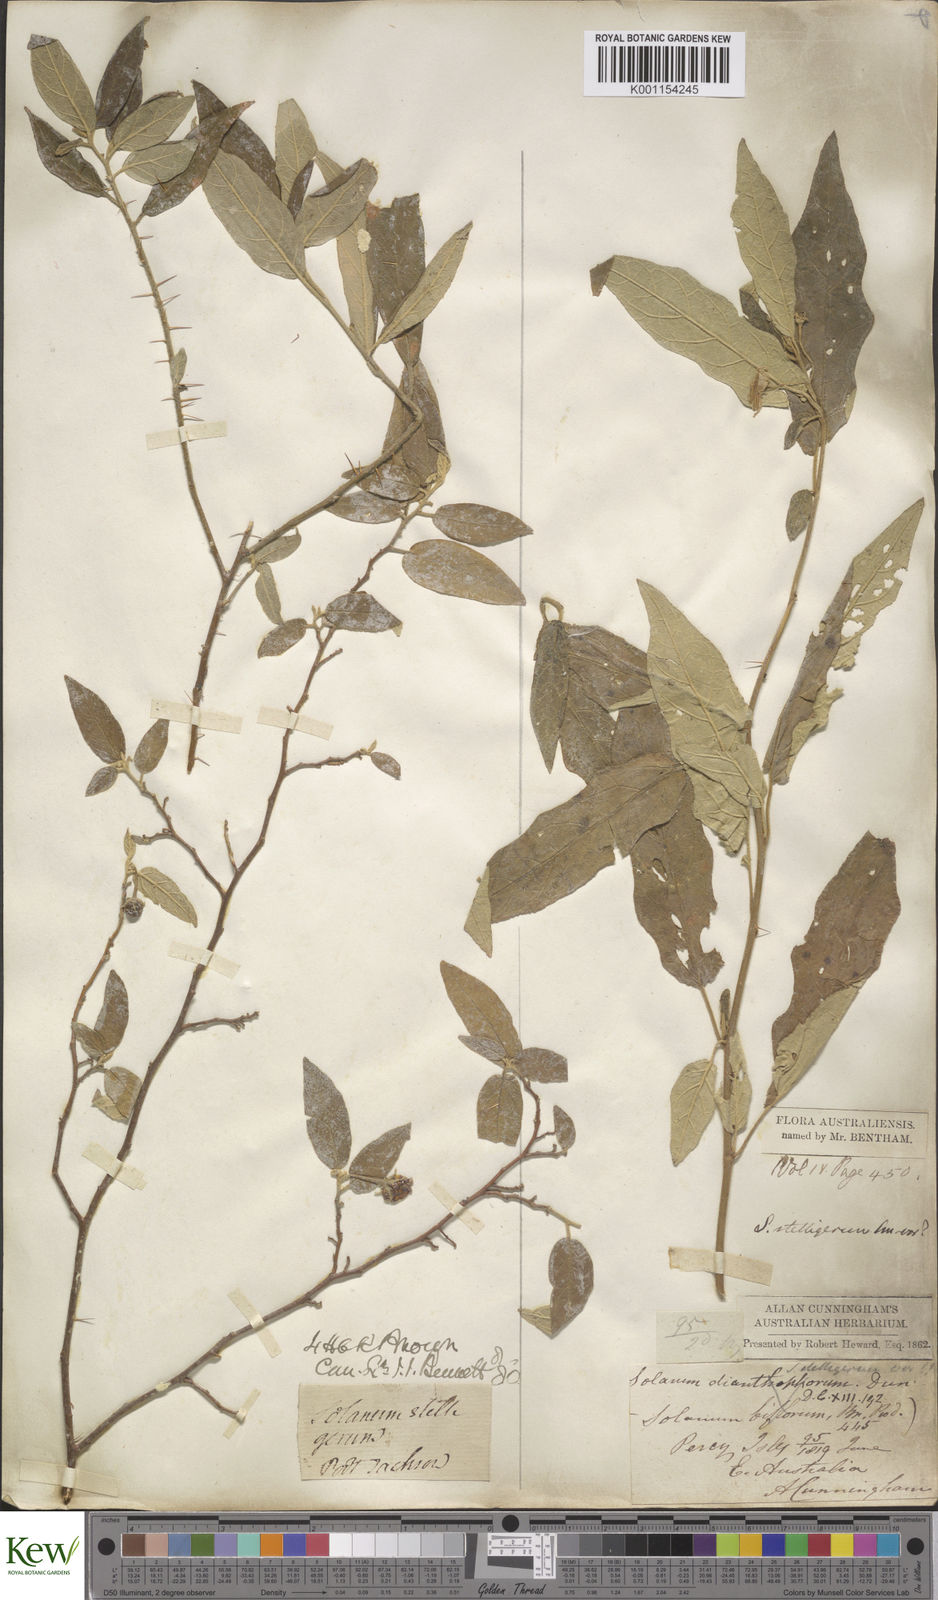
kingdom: Plantae
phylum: Tracheophyta
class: Magnoliopsida
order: Solanales
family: Solanaceae
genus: Solanum
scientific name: Solanum stelligerum
